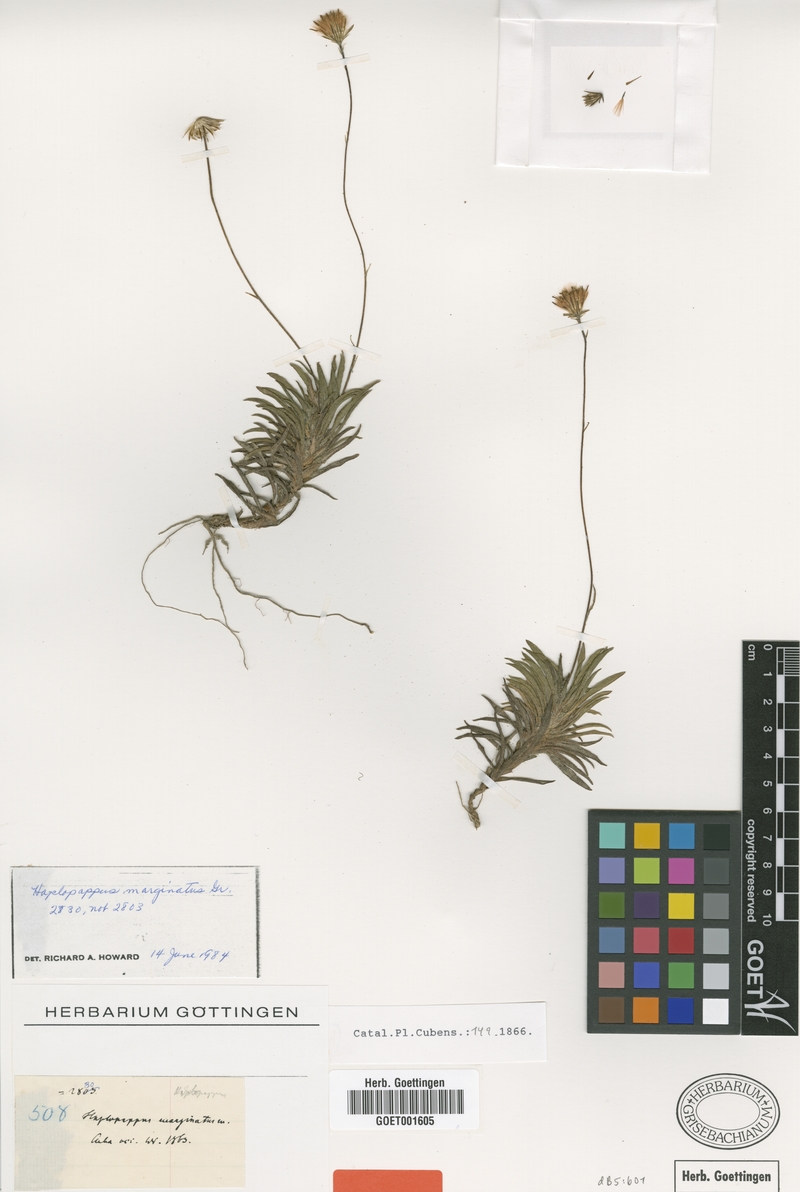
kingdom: Plantae
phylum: Tracheophyta
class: Magnoliopsida
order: Asterales
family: Asteraceae
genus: Neja
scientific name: Neja marginata
